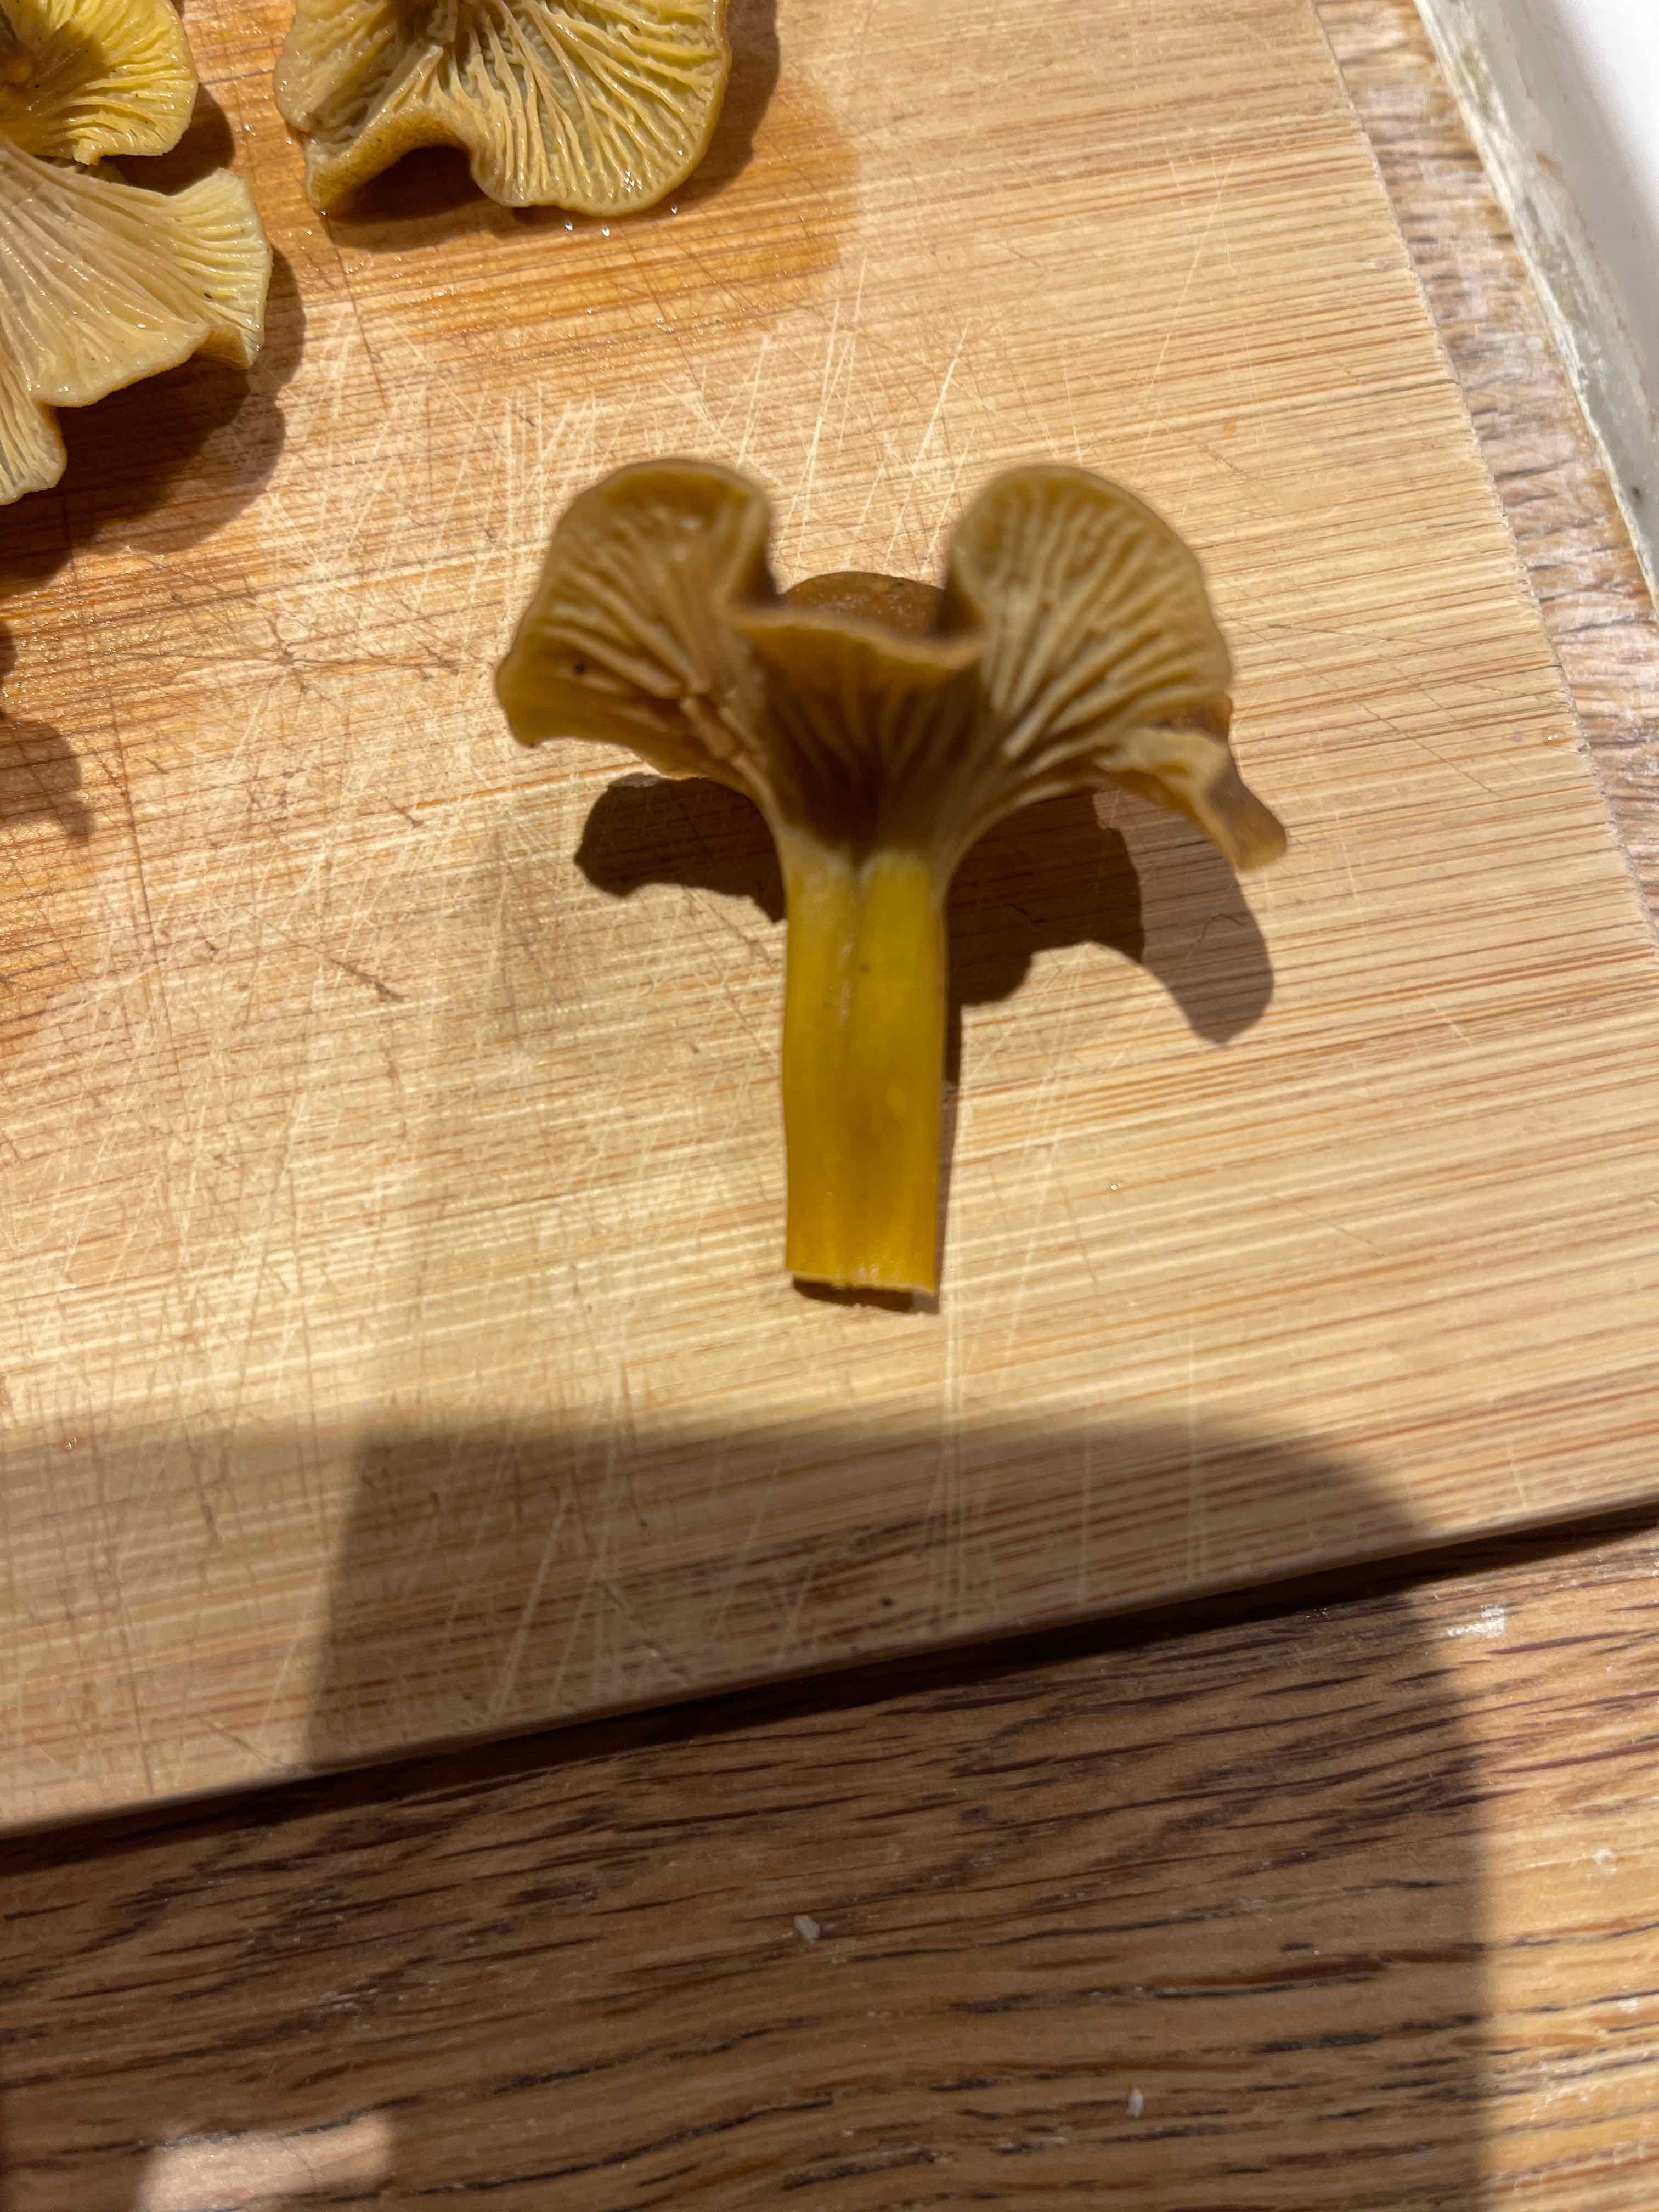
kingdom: Fungi
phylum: Basidiomycota
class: Agaricomycetes
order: Cantharellales
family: Hydnaceae
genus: Craterellus
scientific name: Craterellus tubaeformis
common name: tragt-kantarel
